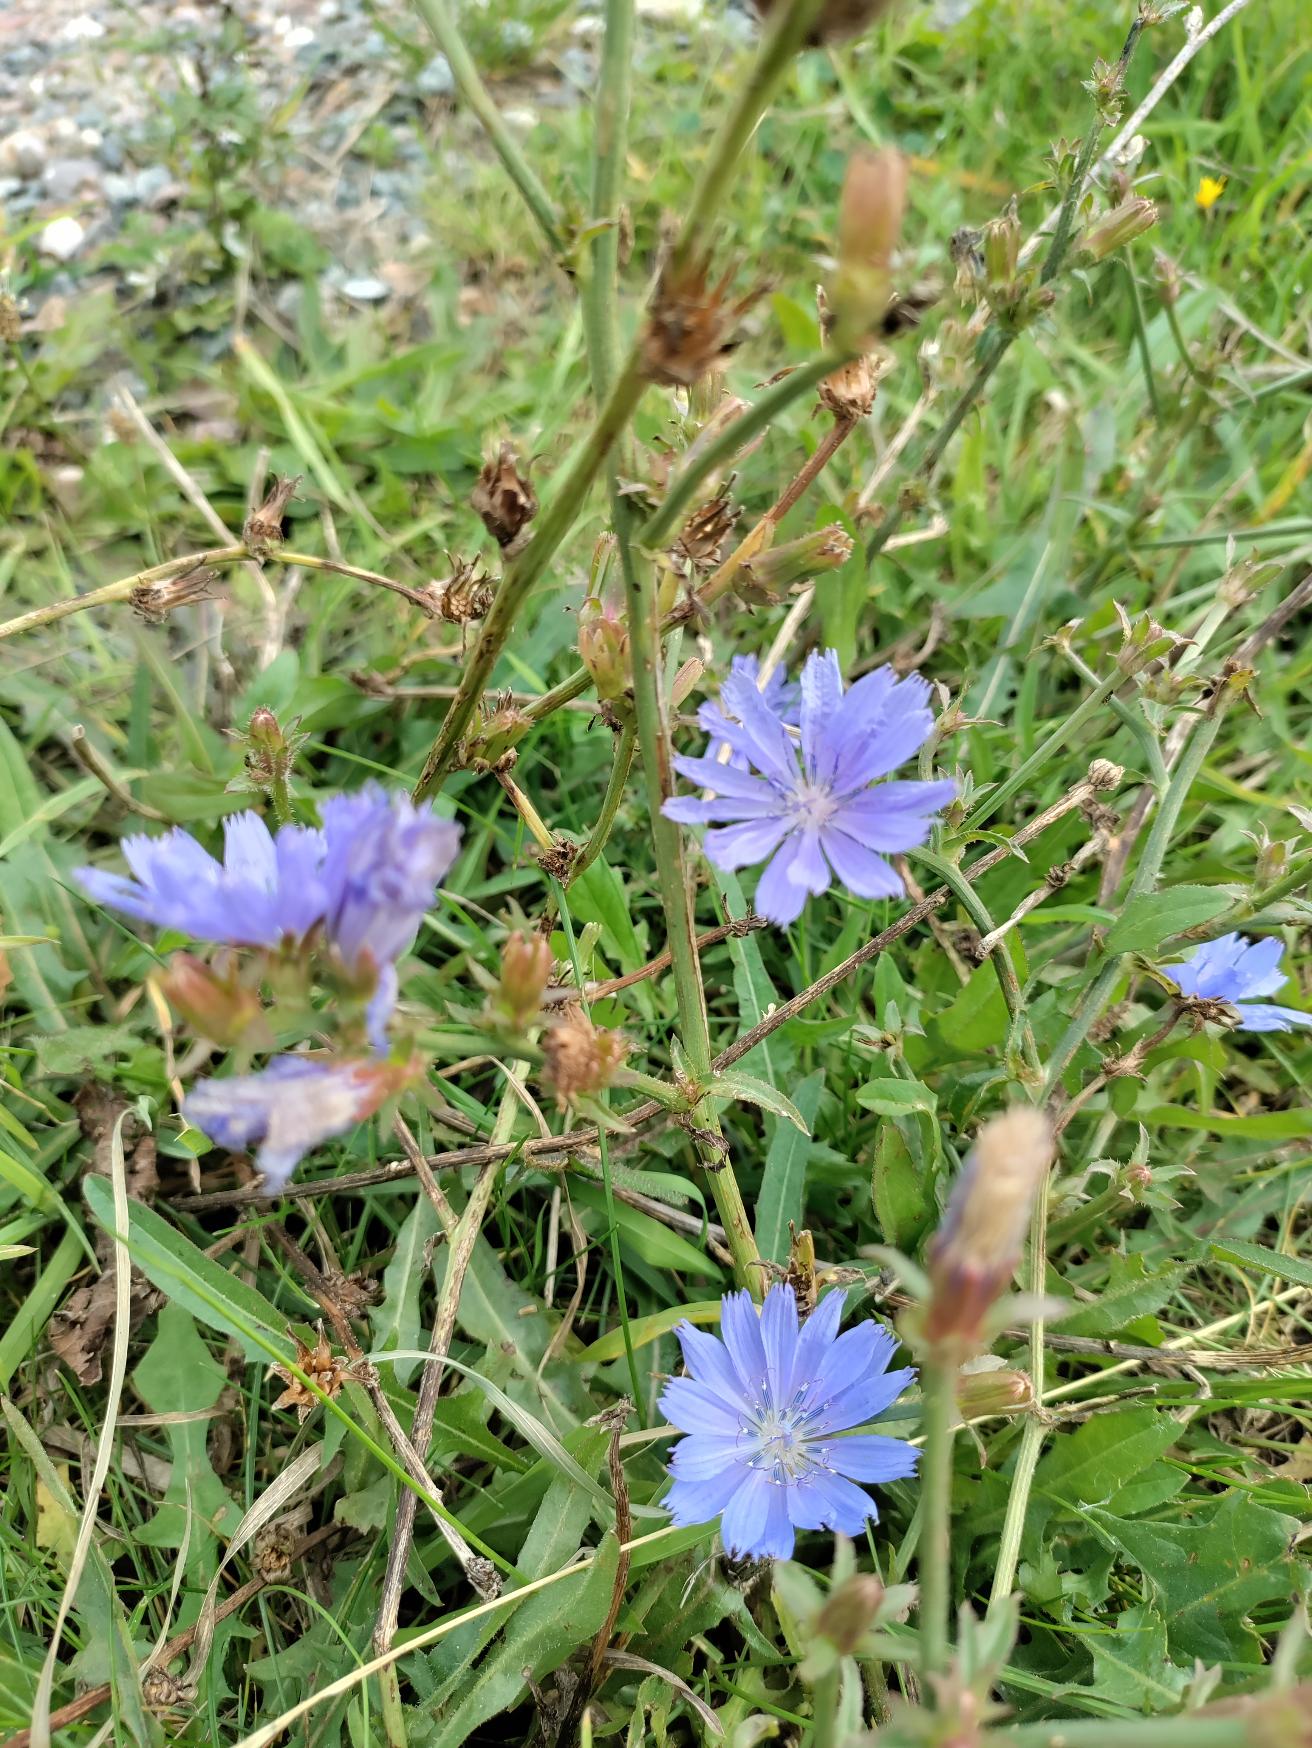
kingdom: Plantae
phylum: Tracheophyta
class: Magnoliopsida
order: Asterales
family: Asteraceae
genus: Cichorium
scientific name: Cichorium intybus
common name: Cikorie
